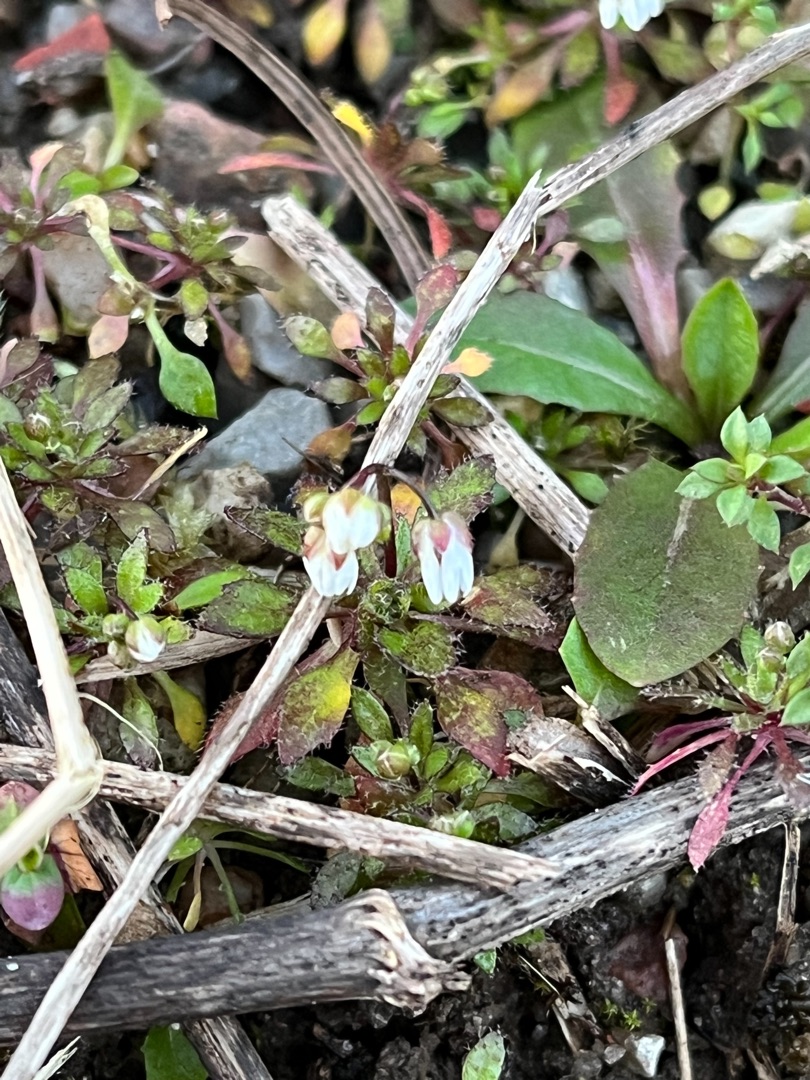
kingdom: Plantae
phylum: Tracheophyta
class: Magnoliopsida
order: Brassicales
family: Brassicaceae
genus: Draba
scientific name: Draba verna
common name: Vår-gæslingeblomst
